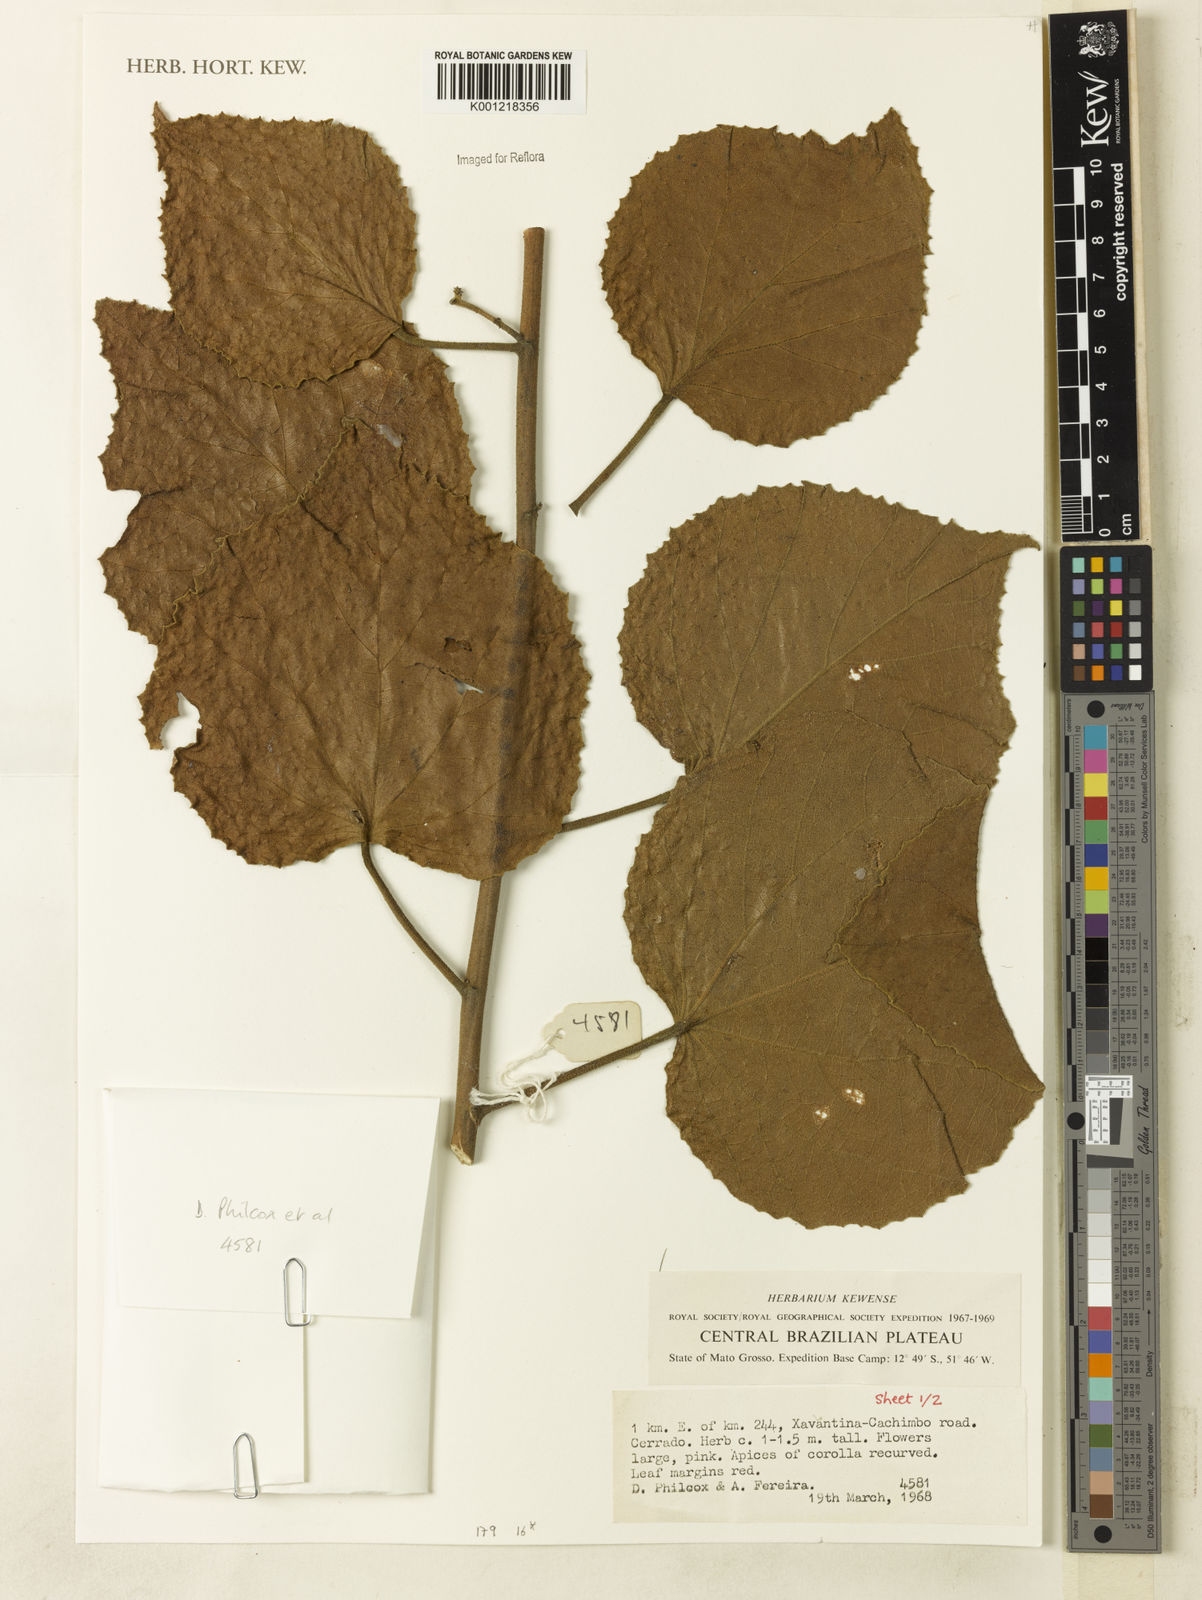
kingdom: Plantae
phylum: Tracheophyta
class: Magnoliopsida
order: Malvales
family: Malvaceae
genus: Hibiscus
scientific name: Hibiscus furcellatus
